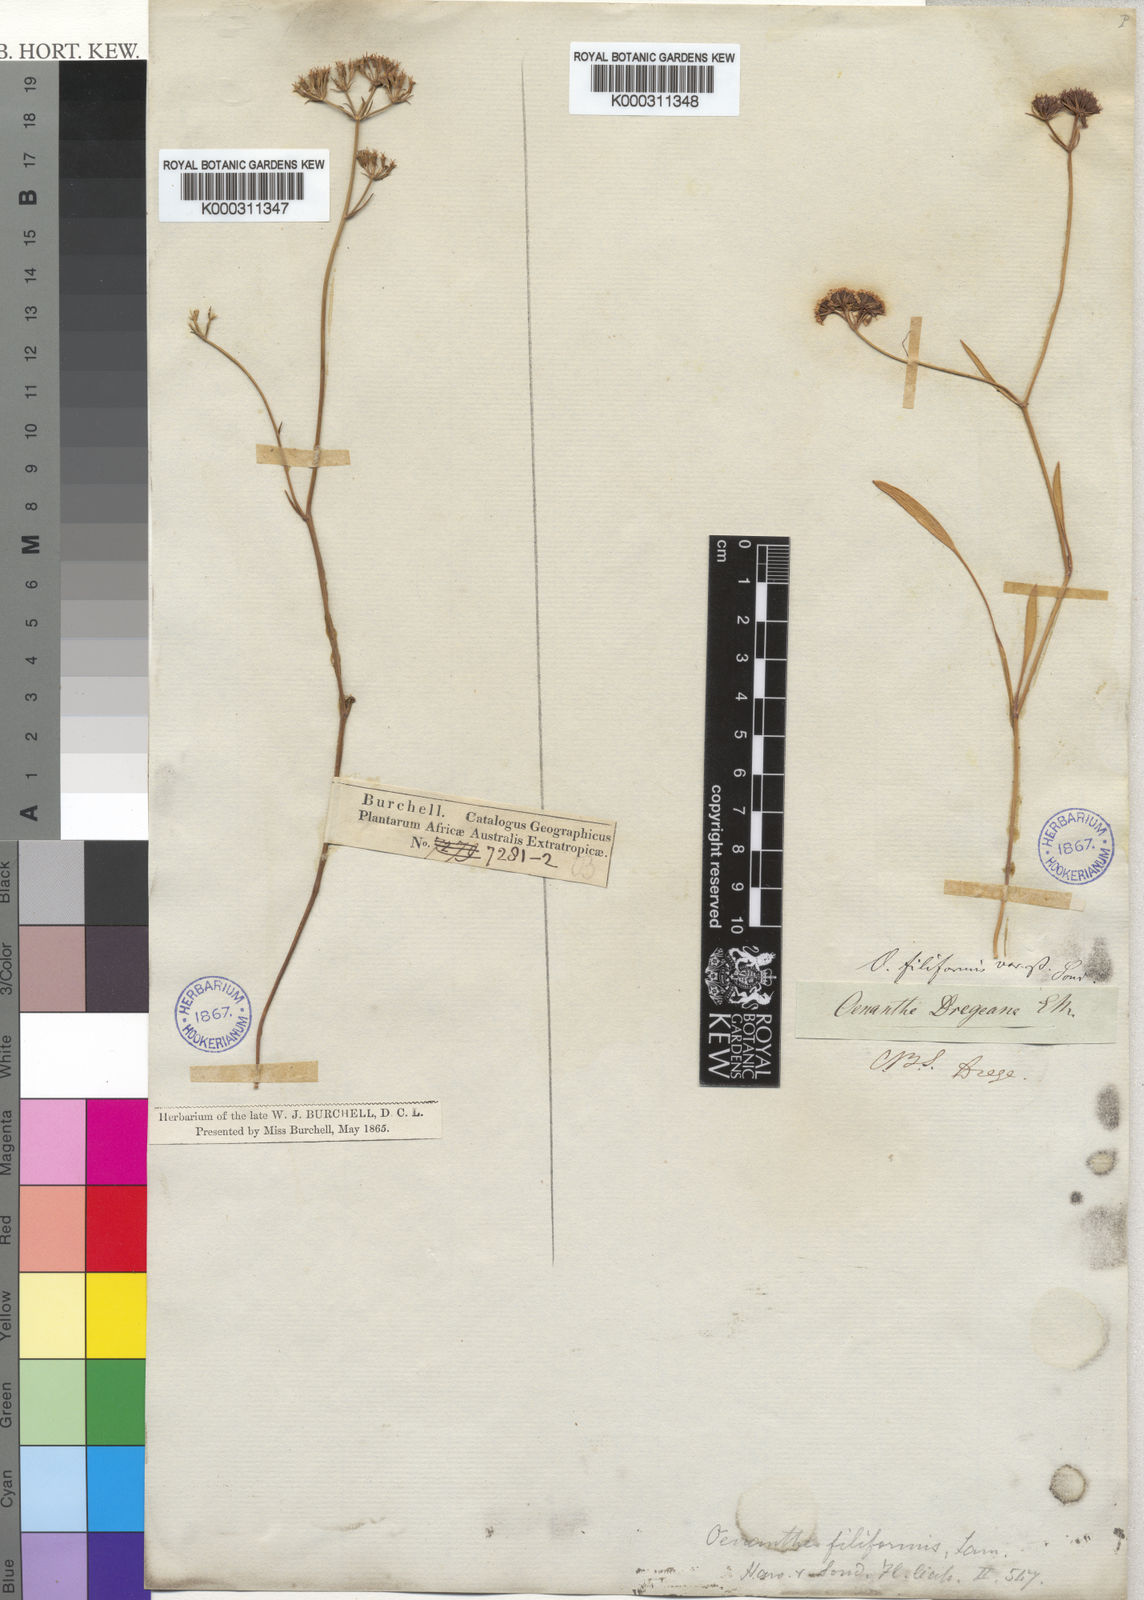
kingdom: Plantae
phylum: Tracheophyta
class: Magnoliopsida
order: Apiales
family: Apiaceae
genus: Itasina
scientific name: Itasina filifolia
